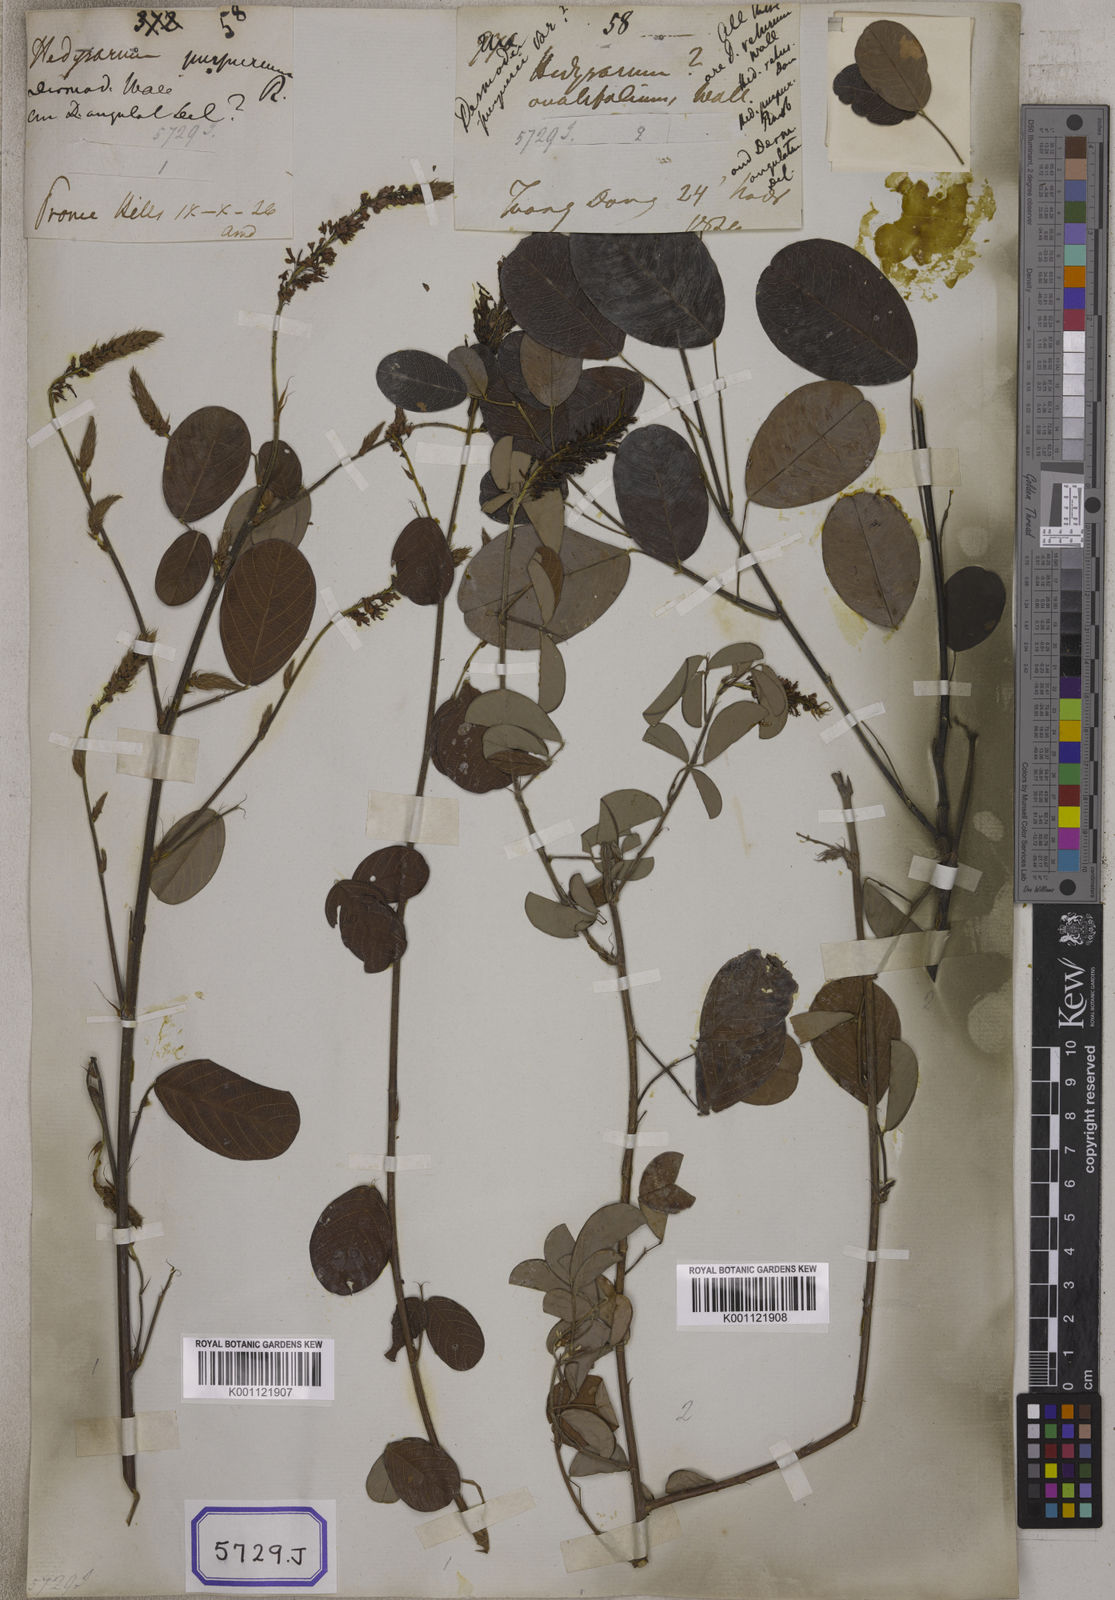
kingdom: Plantae
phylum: Tracheophyta
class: Magnoliopsida
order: Fabales
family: Fabaceae
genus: Desmodium
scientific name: Desmodium
